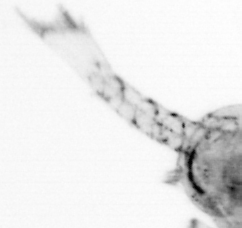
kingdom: Animalia
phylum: Arthropoda
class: Copepoda
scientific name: Copepoda
